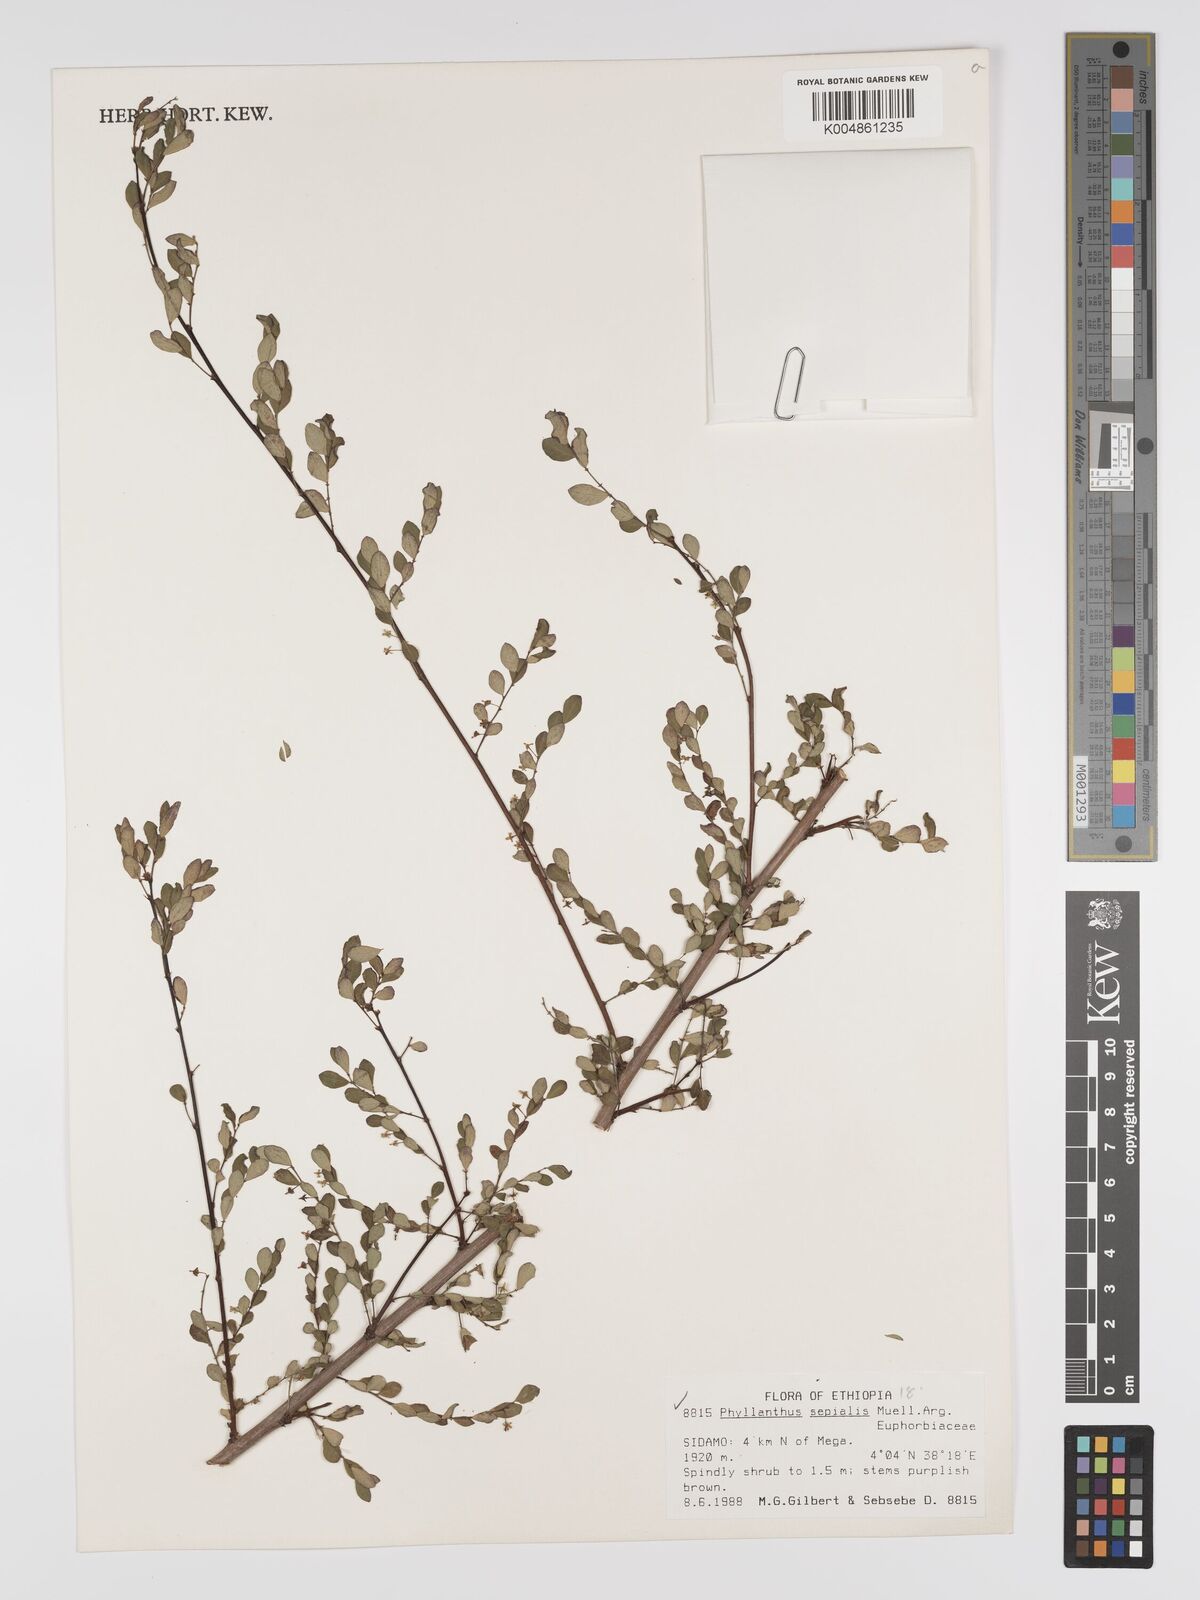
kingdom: Plantae
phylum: Tracheophyta
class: Magnoliopsida
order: Malpighiales
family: Phyllanthaceae
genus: Phyllanthus
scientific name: Phyllanthus sepialis
